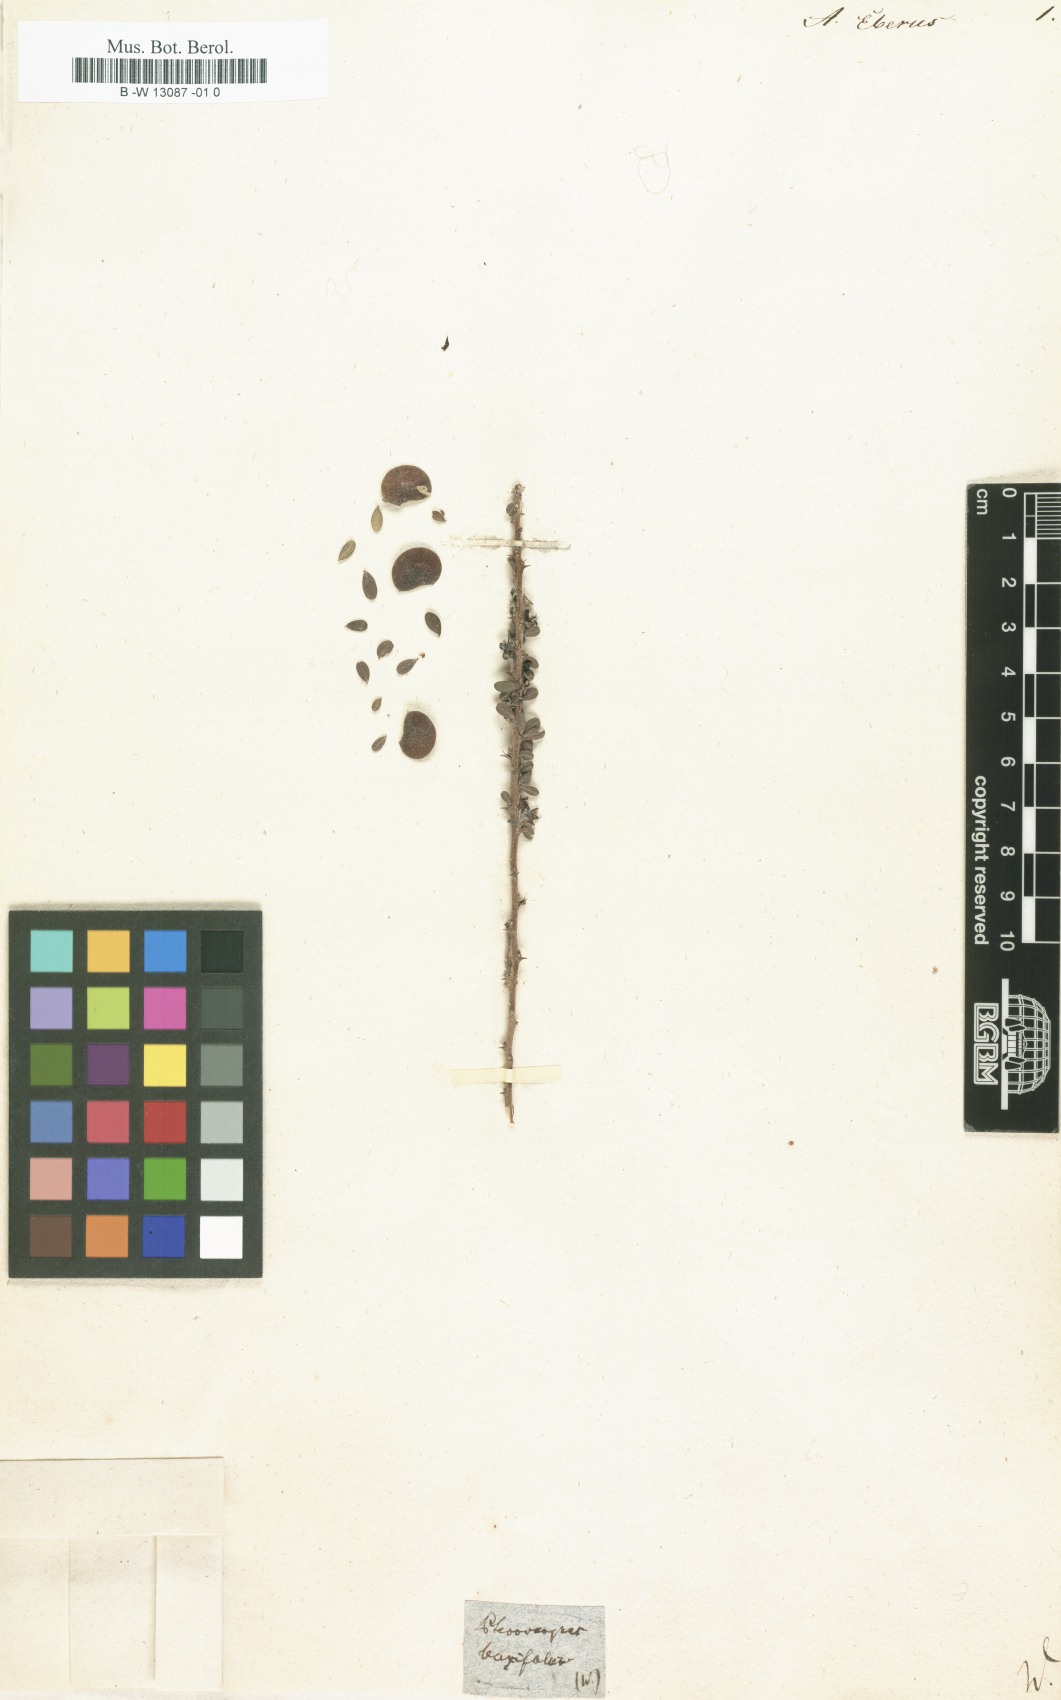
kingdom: Plantae
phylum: Tracheophyta
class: Magnoliopsida
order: Fabales
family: Fabaceae
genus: Amerimnum
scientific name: Amerimnum
